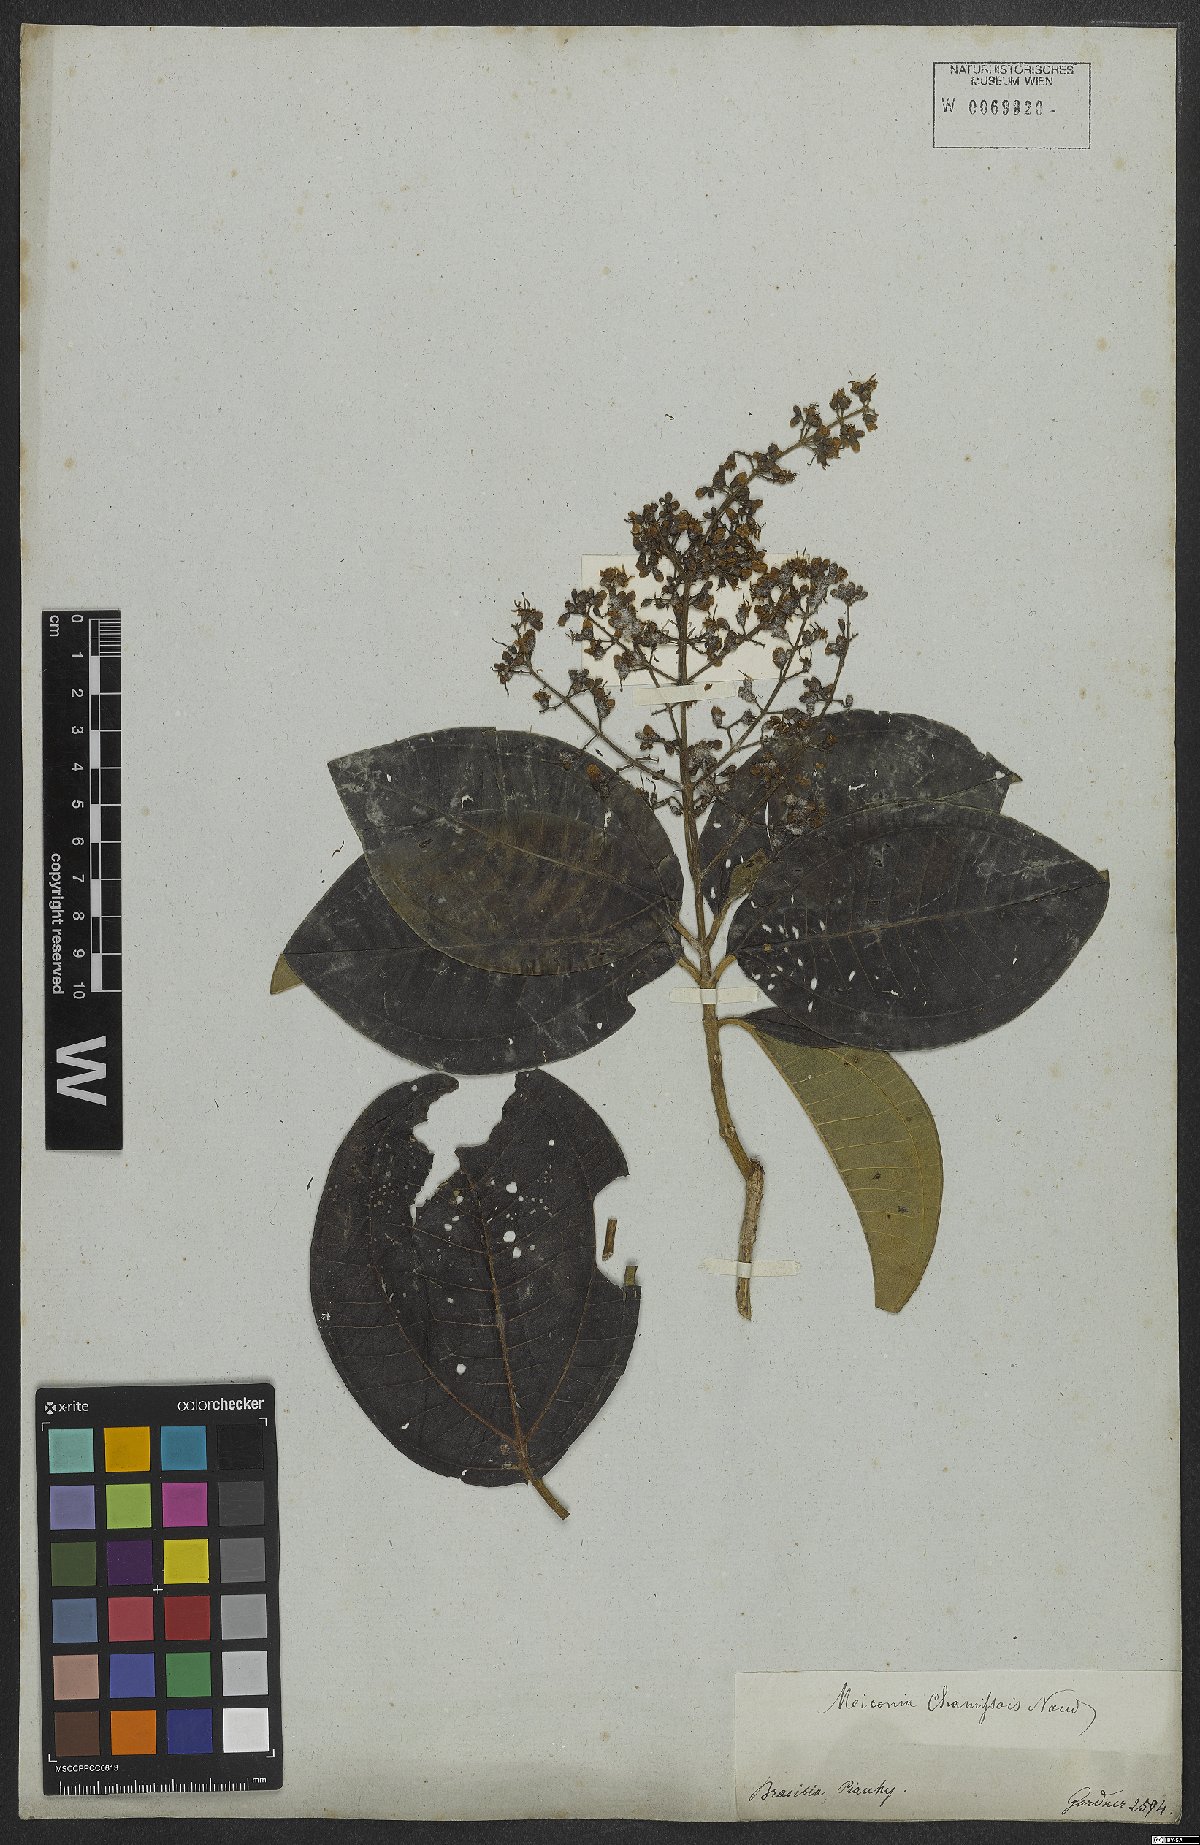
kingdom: Plantae
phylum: Tracheophyta
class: Magnoliopsida
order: Myrtales
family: Melastomataceae
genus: Miconia
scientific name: Miconia chamissois
